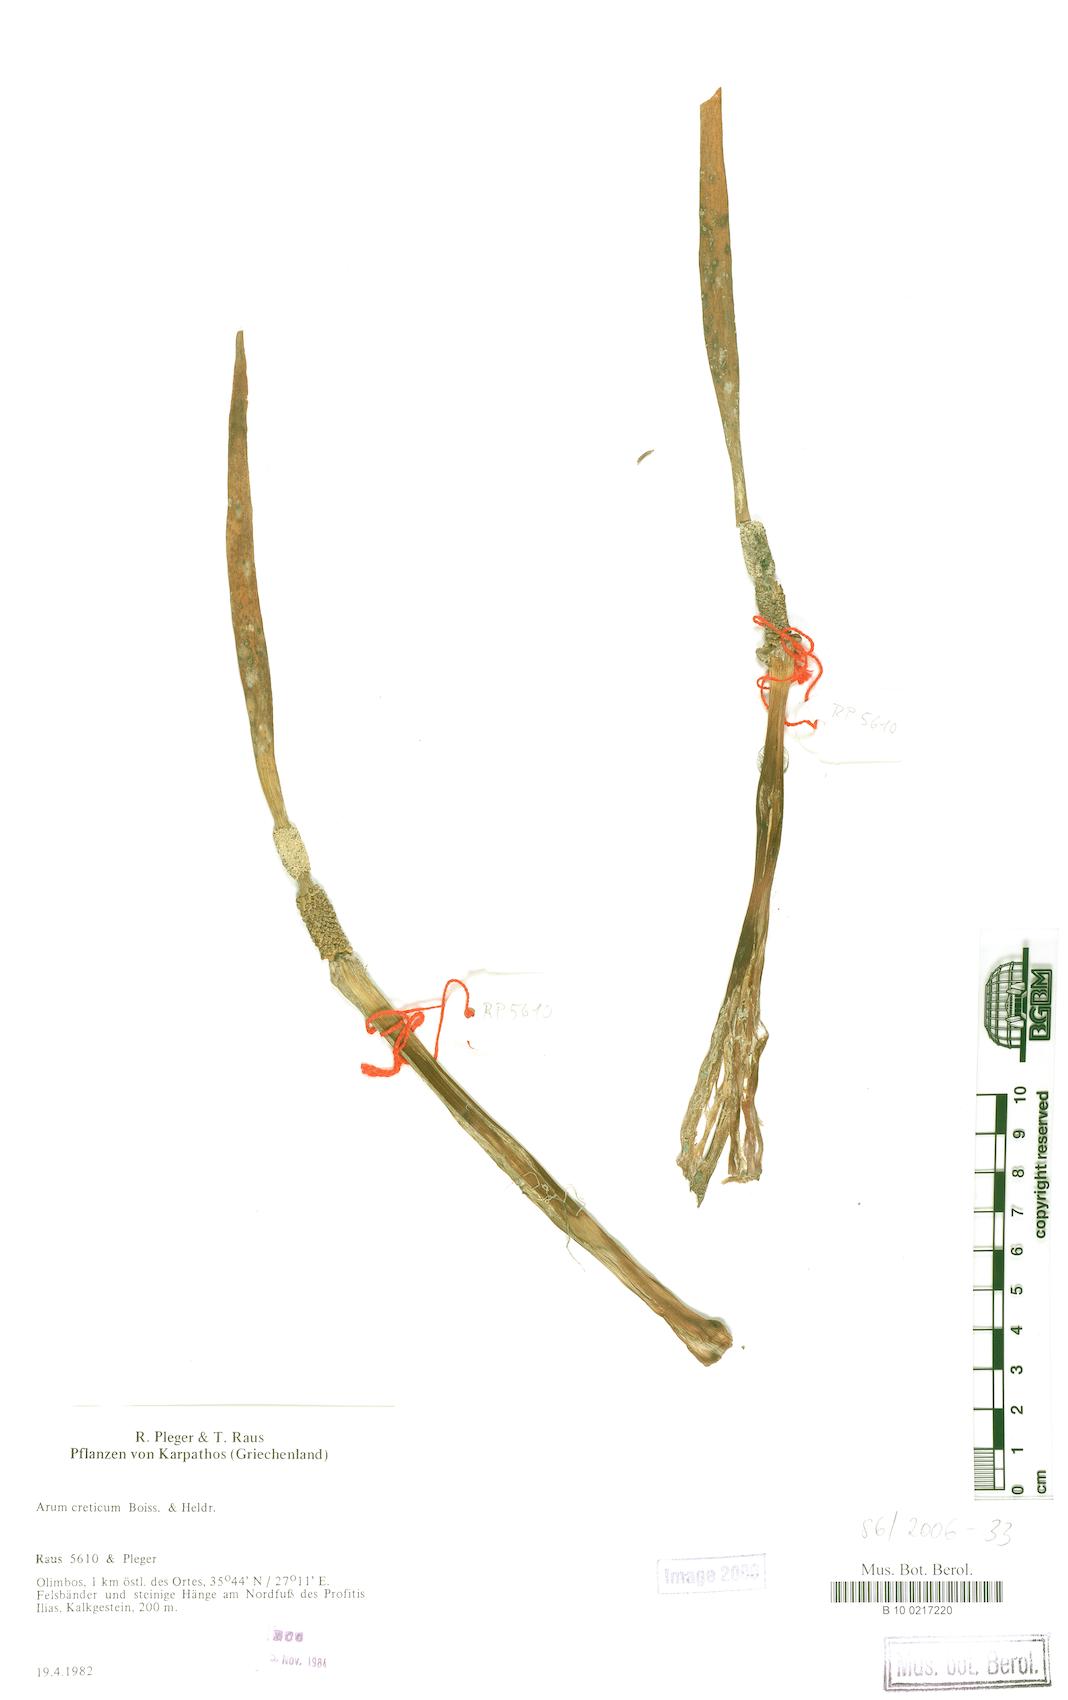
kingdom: Plantae
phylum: Tracheophyta
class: Liliopsida
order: Alismatales
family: Araceae
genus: Arum
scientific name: Arum creticum
